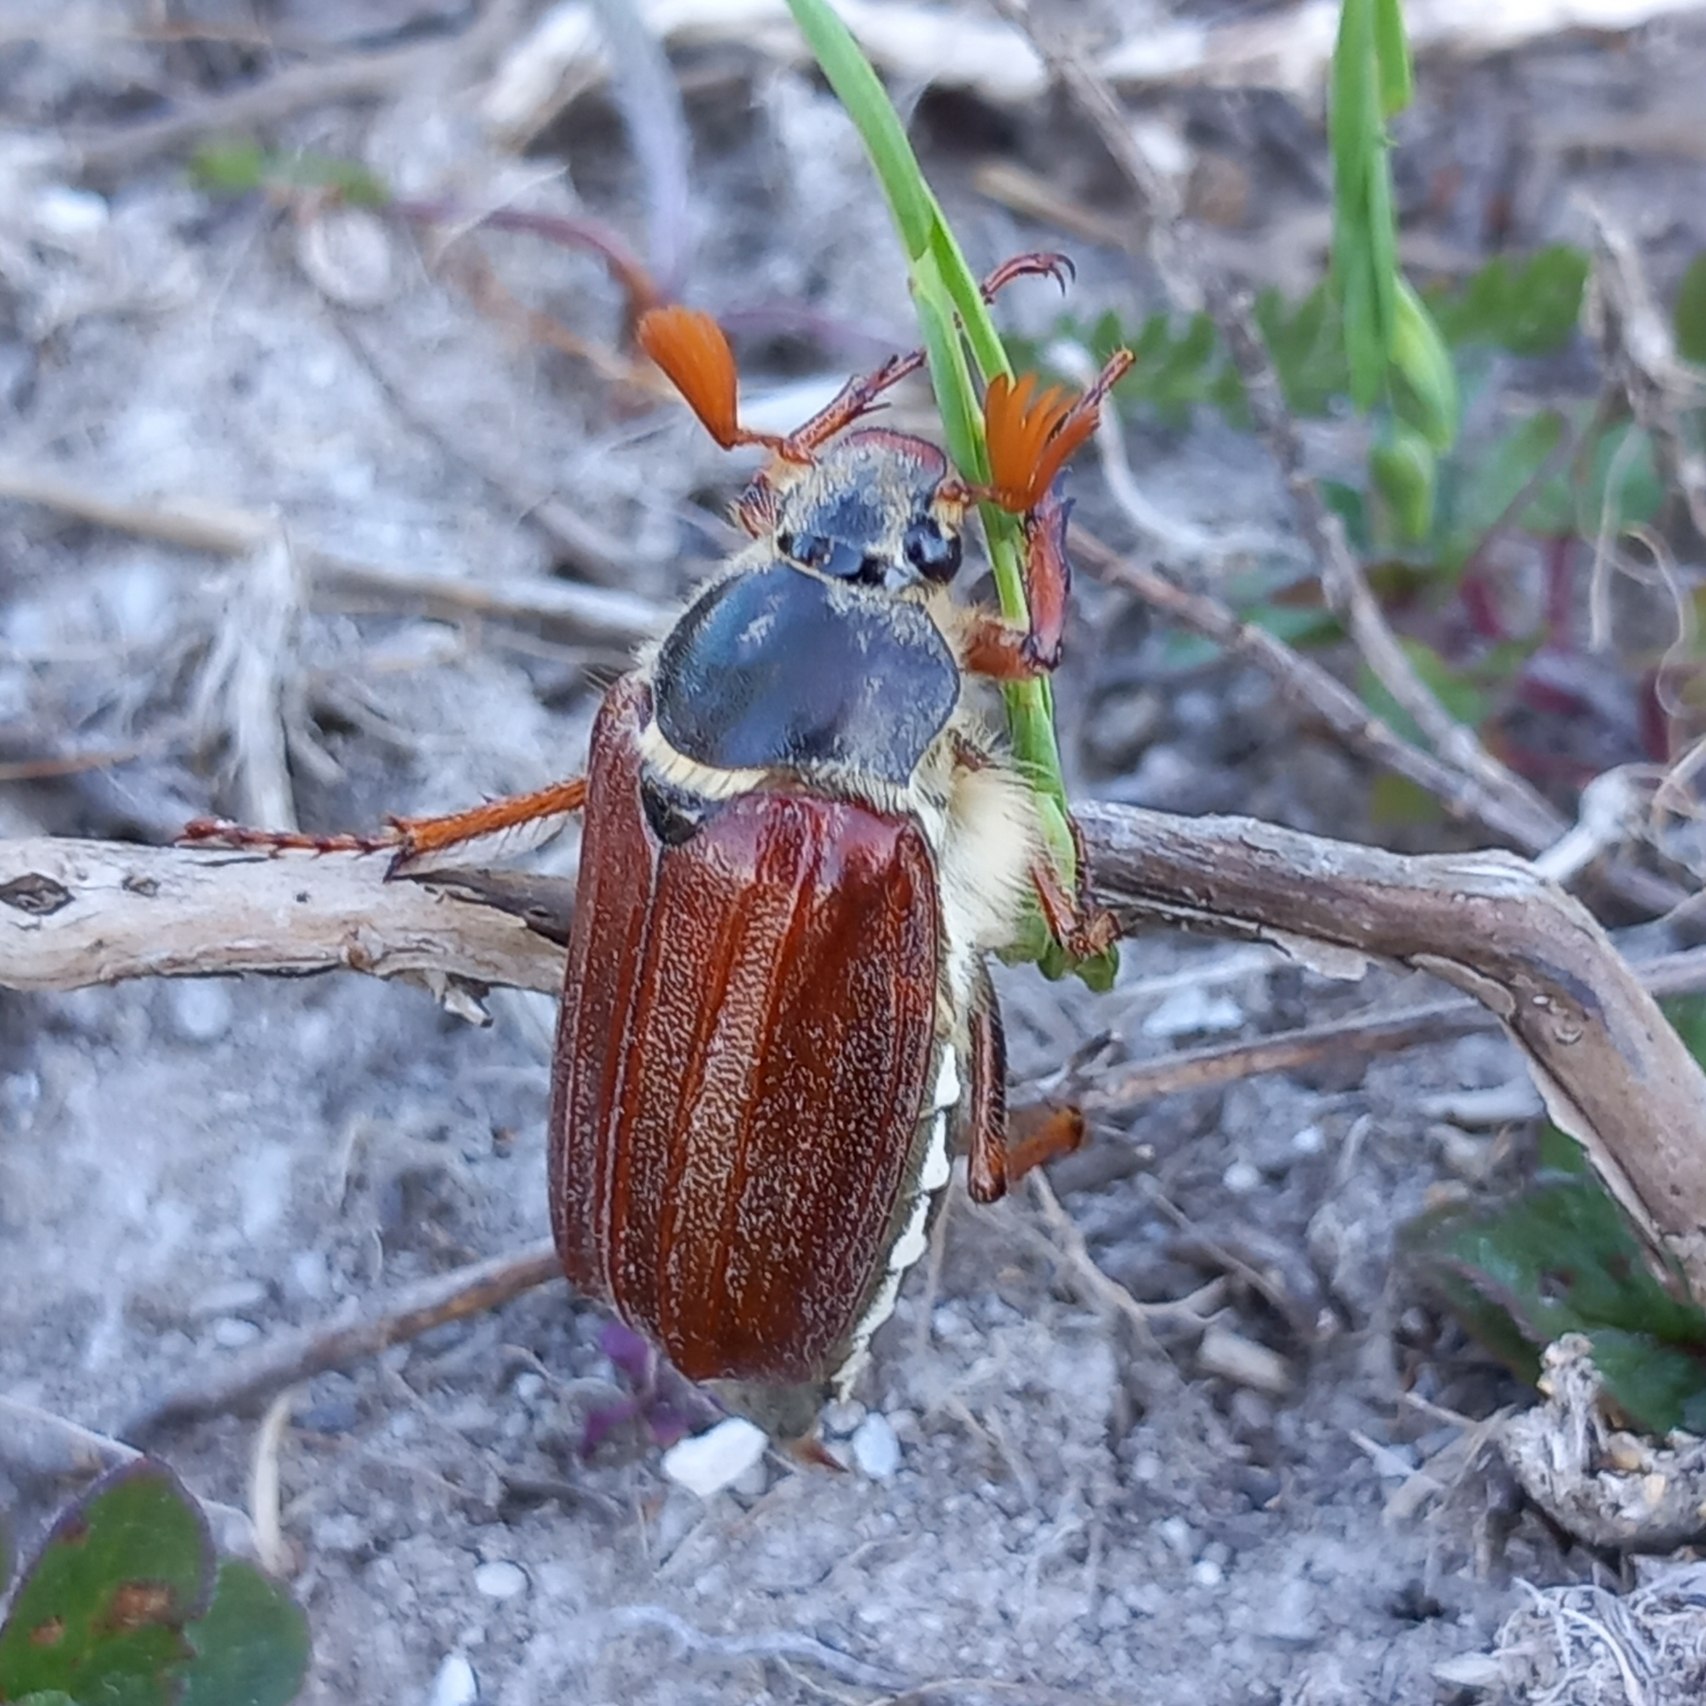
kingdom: Animalia
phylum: Arthropoda
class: Insecta
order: Coleoptera
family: Scarabaeidae
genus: Melolontha
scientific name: Melolontha melolontha
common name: Almindelig oldenborre
